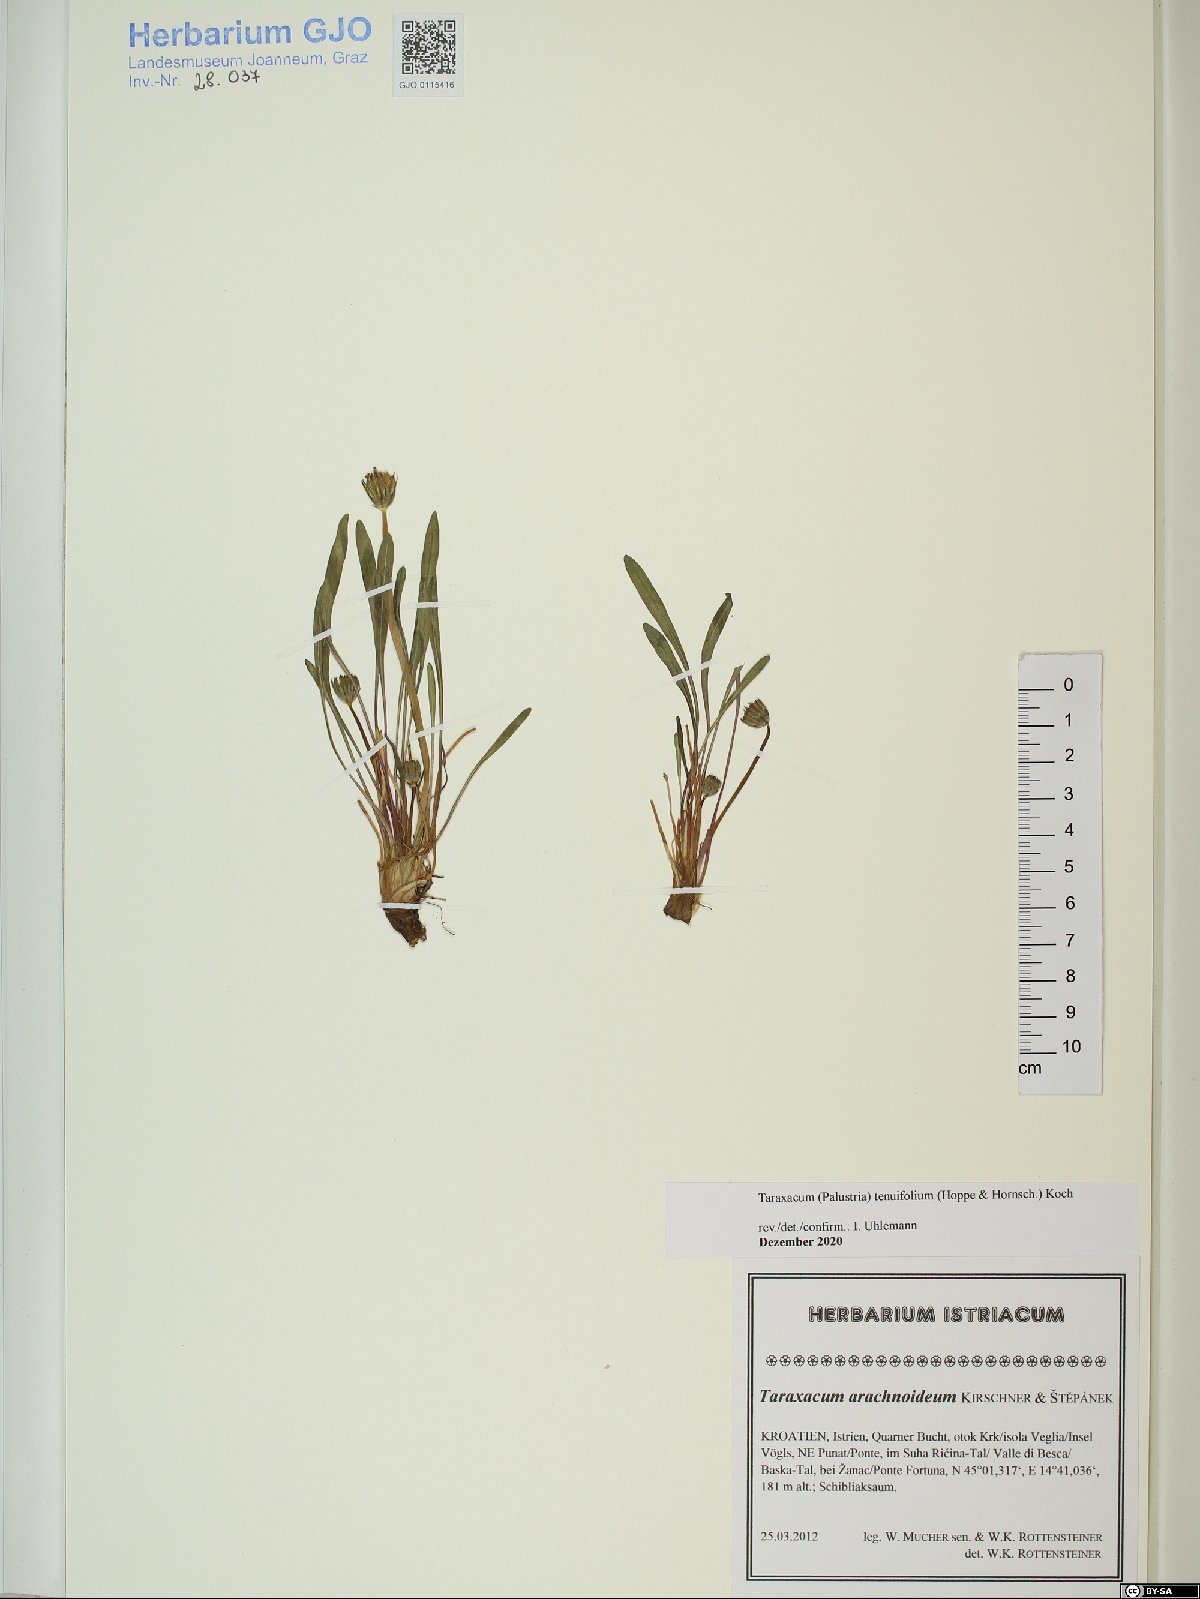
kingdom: Plantae
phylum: Tracheophyta
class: Magnoliopsida
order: Asterales
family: Asteraceae
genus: Taraxacum
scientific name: Taraxacum tenuifolium
